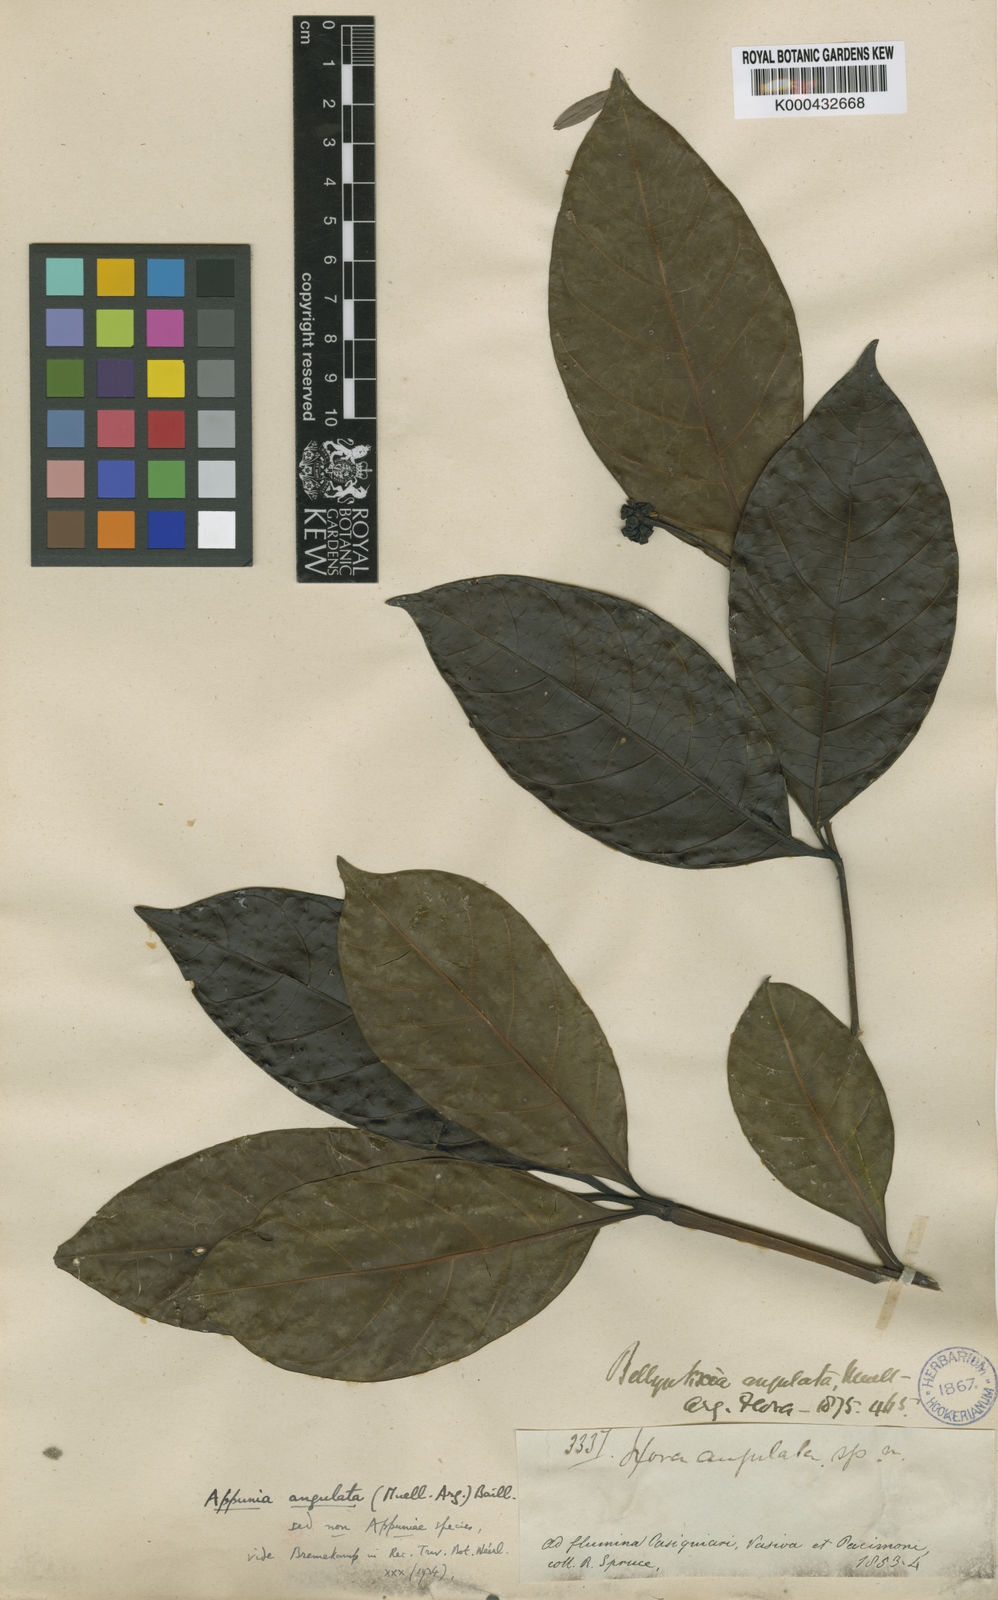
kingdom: Plantae
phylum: Tracheophyta
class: Magnoliopsida
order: Gentianales
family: Rubiaceae
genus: Appunia
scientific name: Appunia peduncularis
